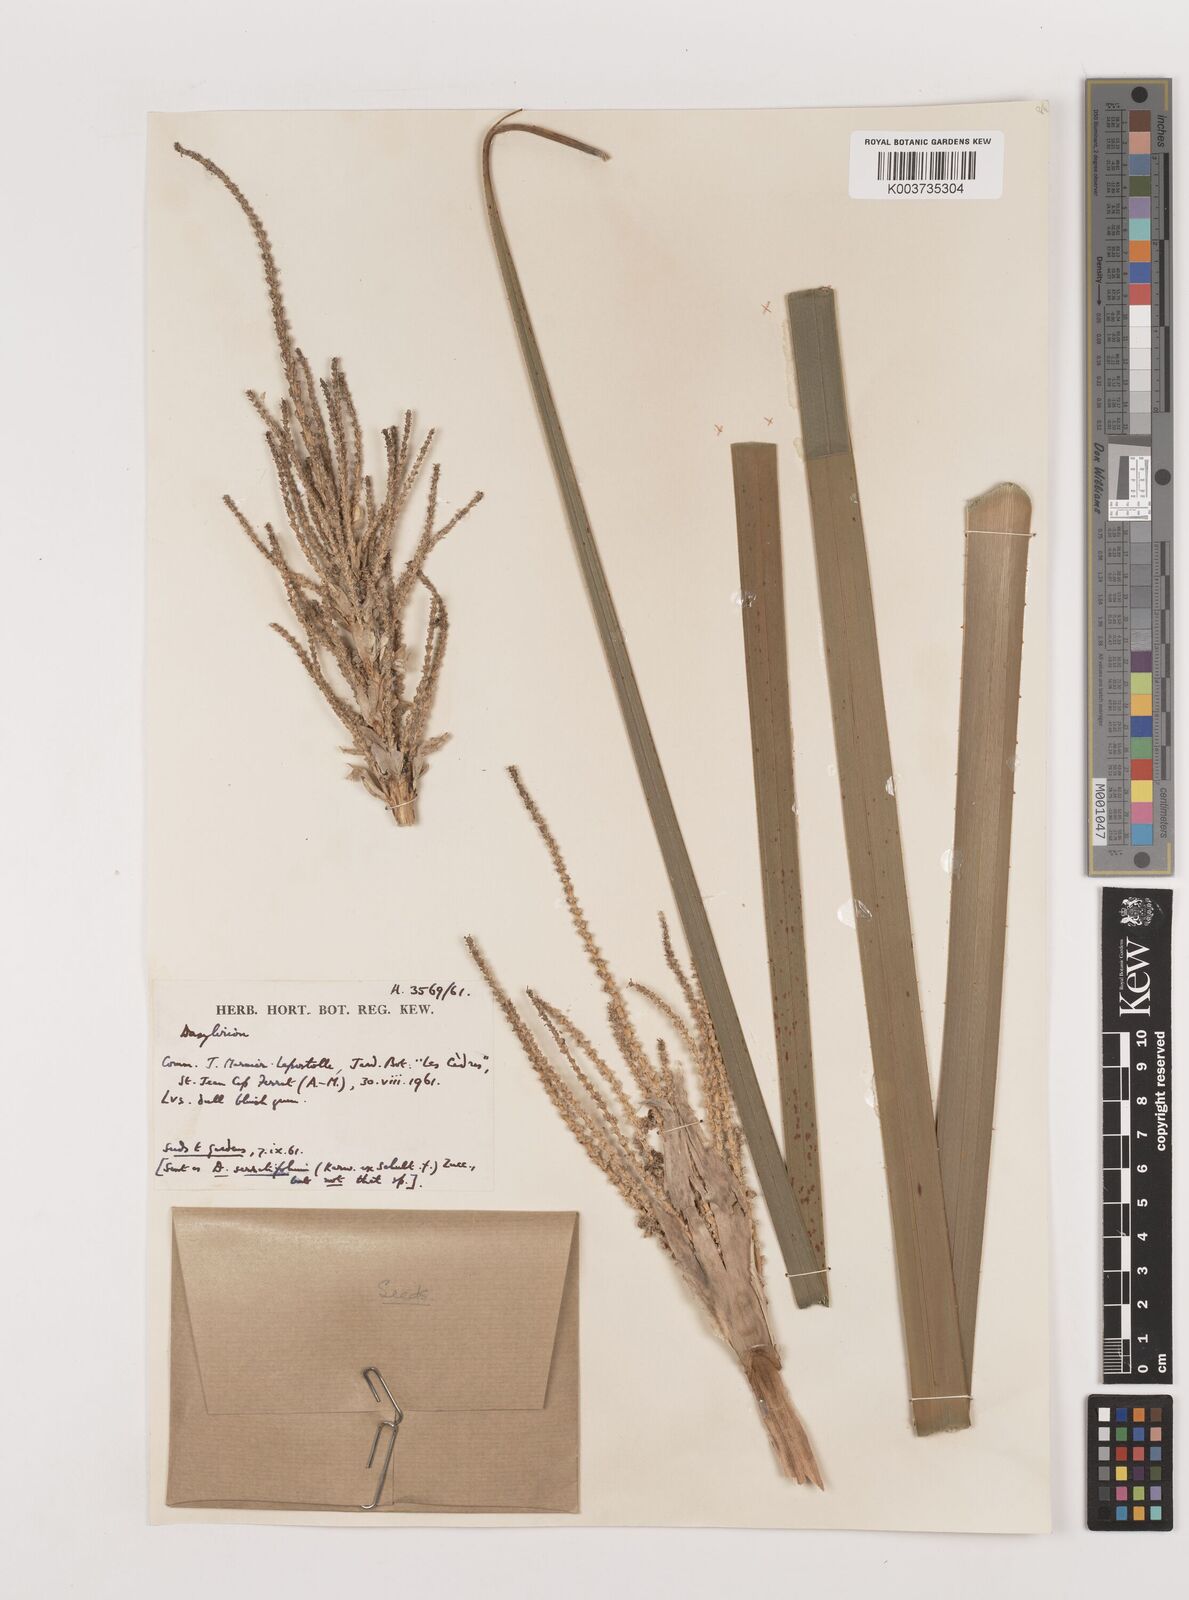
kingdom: Plantae
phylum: Tracheophyta
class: Liliopsida
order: Asparagales
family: Asparagaceae
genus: Dasylirion
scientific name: Dasylirion
